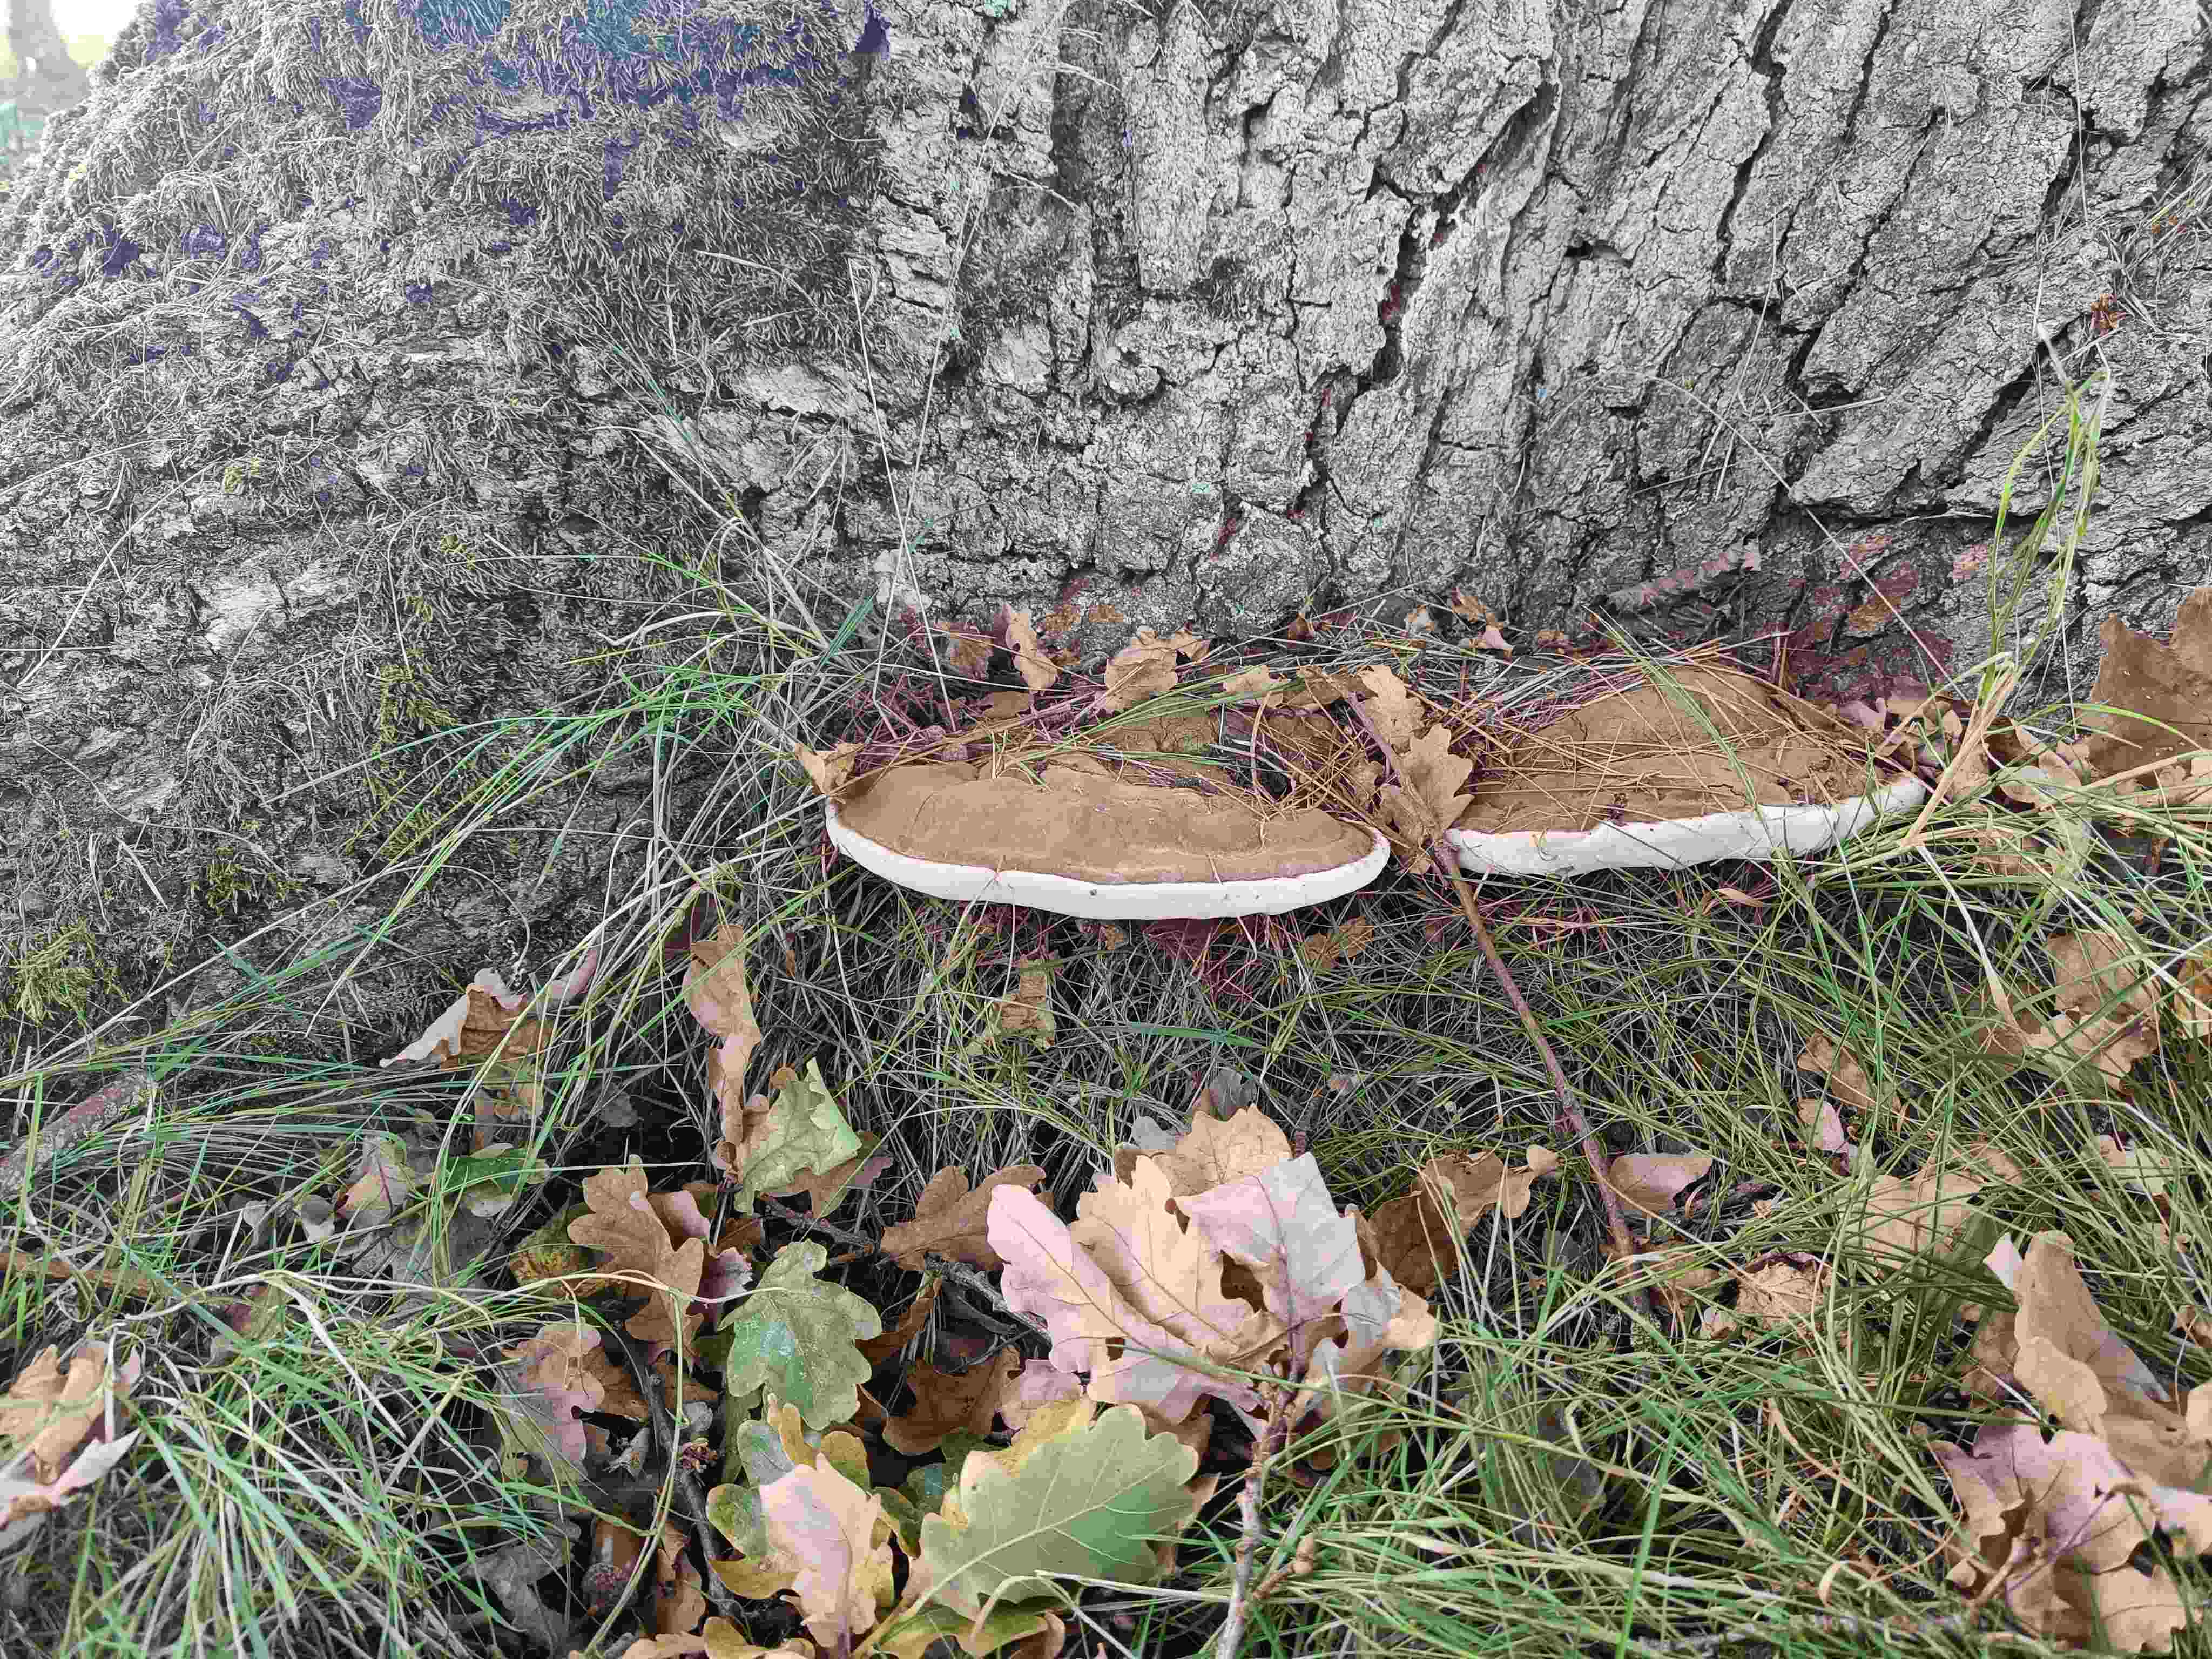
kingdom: Fungi
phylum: Basidiomycota
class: Agaricomycetes
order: Polyporales
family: Polyporaceae
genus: Ganoderma
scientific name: Ganoderma applanatum
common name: flad lakporesvamp
